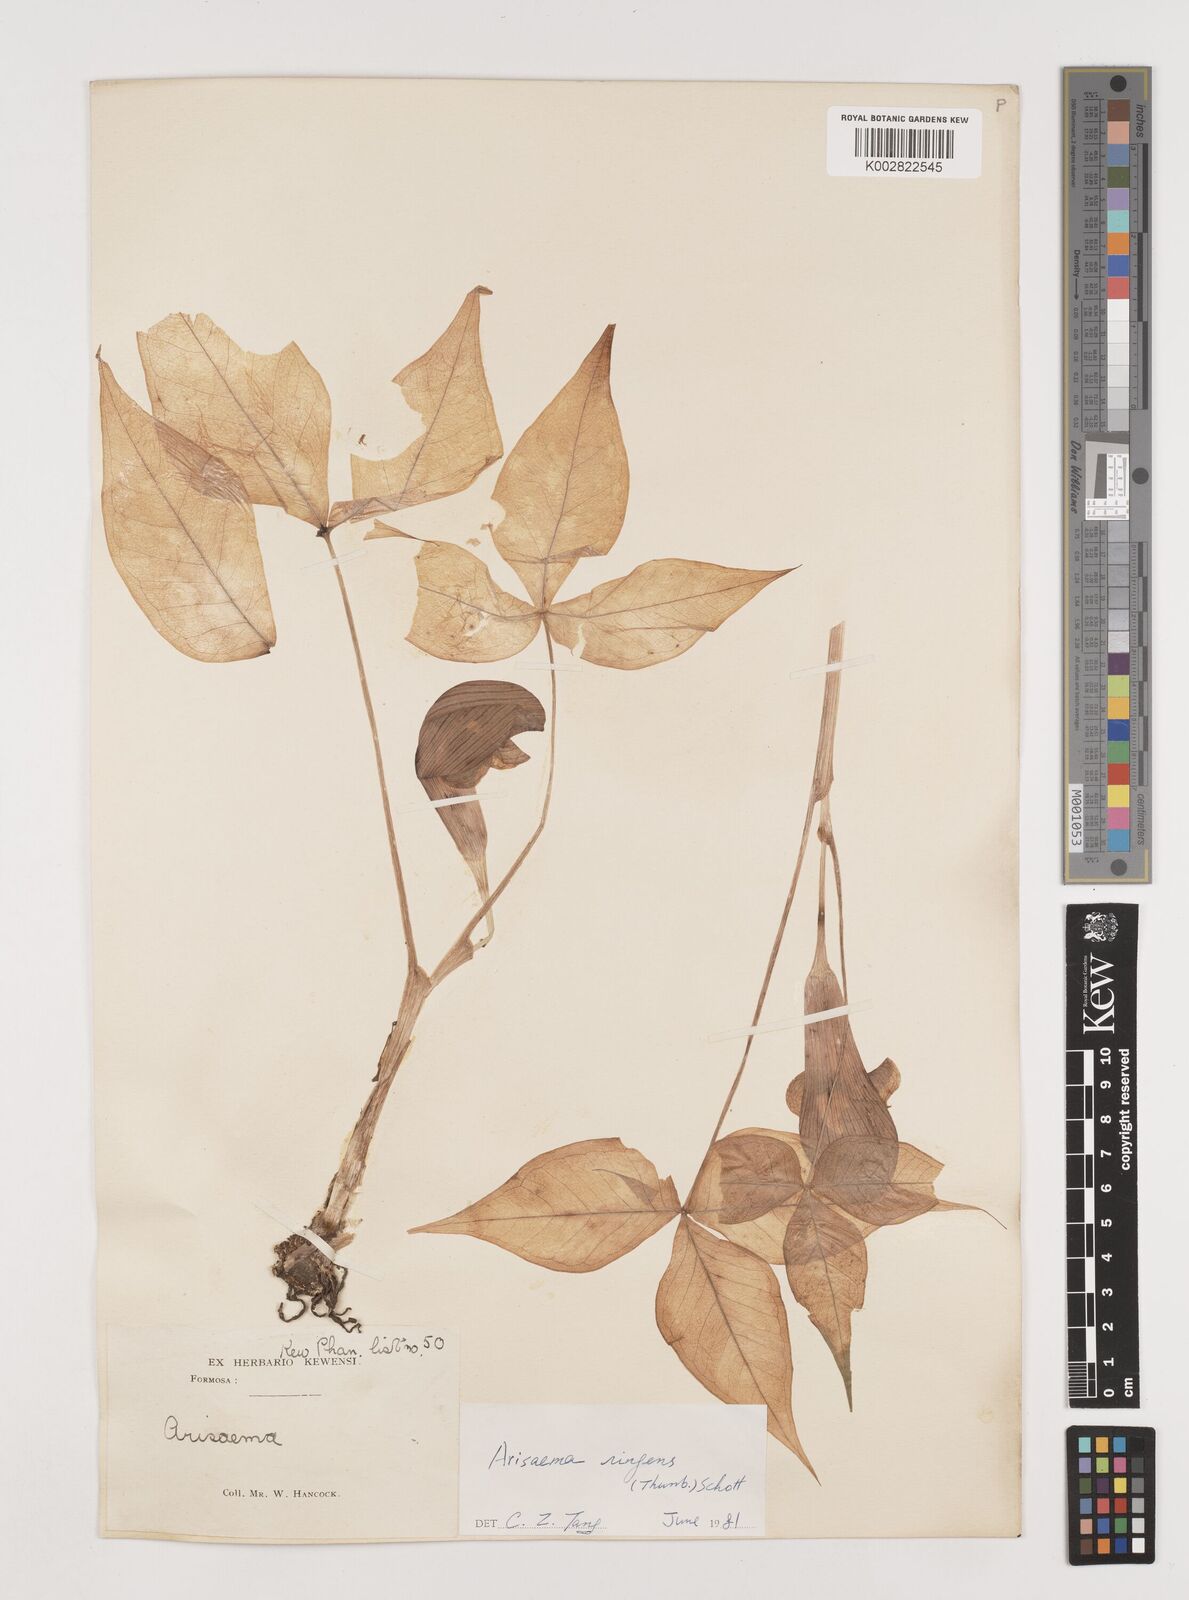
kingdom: Plantae
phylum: Tracheophyta
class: Liliopsida
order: Alismatales
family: Araceae
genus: Arisaema
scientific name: Arisaema ringens
